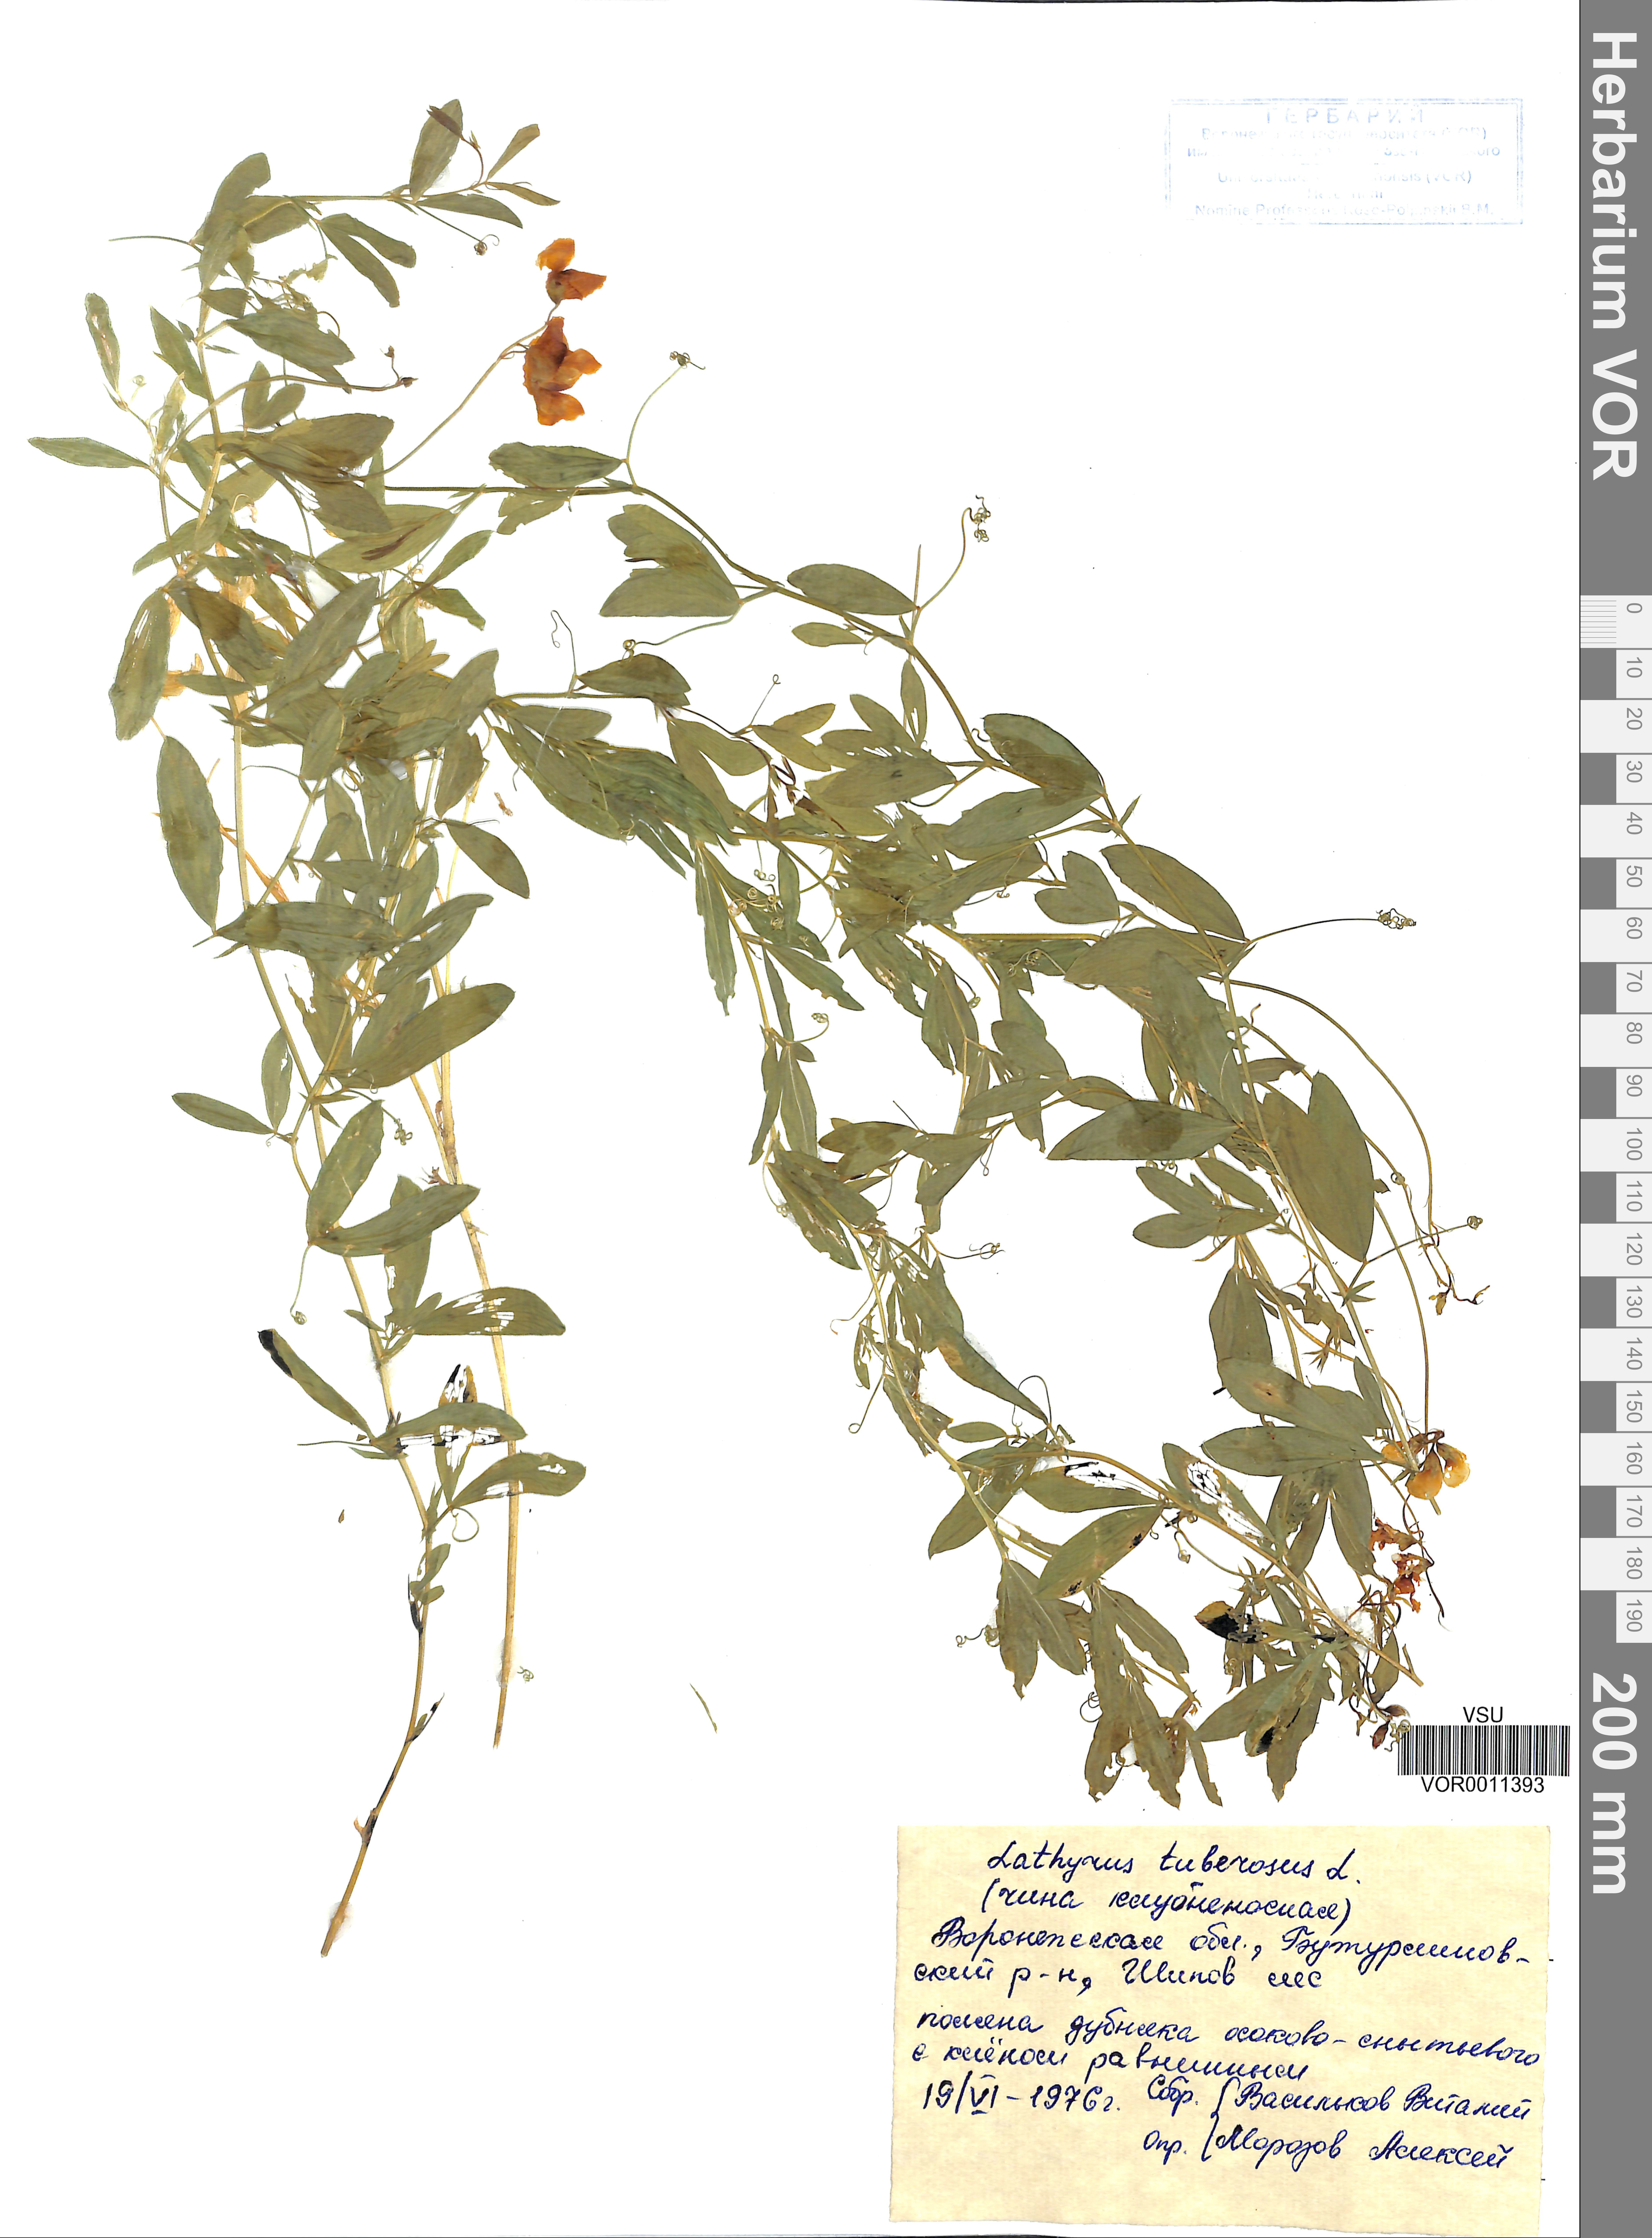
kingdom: Plantae
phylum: Tracheophyta
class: Magnoliopsida
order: Fabales
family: Fabaceae
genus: Lathyrus
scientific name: Lathyrus tuberosus
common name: Tuberous pea
